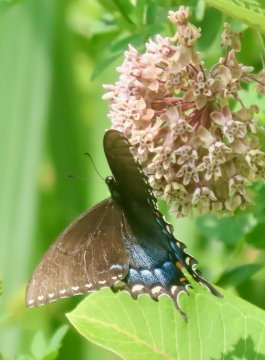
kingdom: Animalia
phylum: Arthropoda
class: Insecta
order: Lepidoptera
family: Papilionidae
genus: Pterourus
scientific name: Pterourus glaucus
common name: Eastern Tiger Swallowtail
